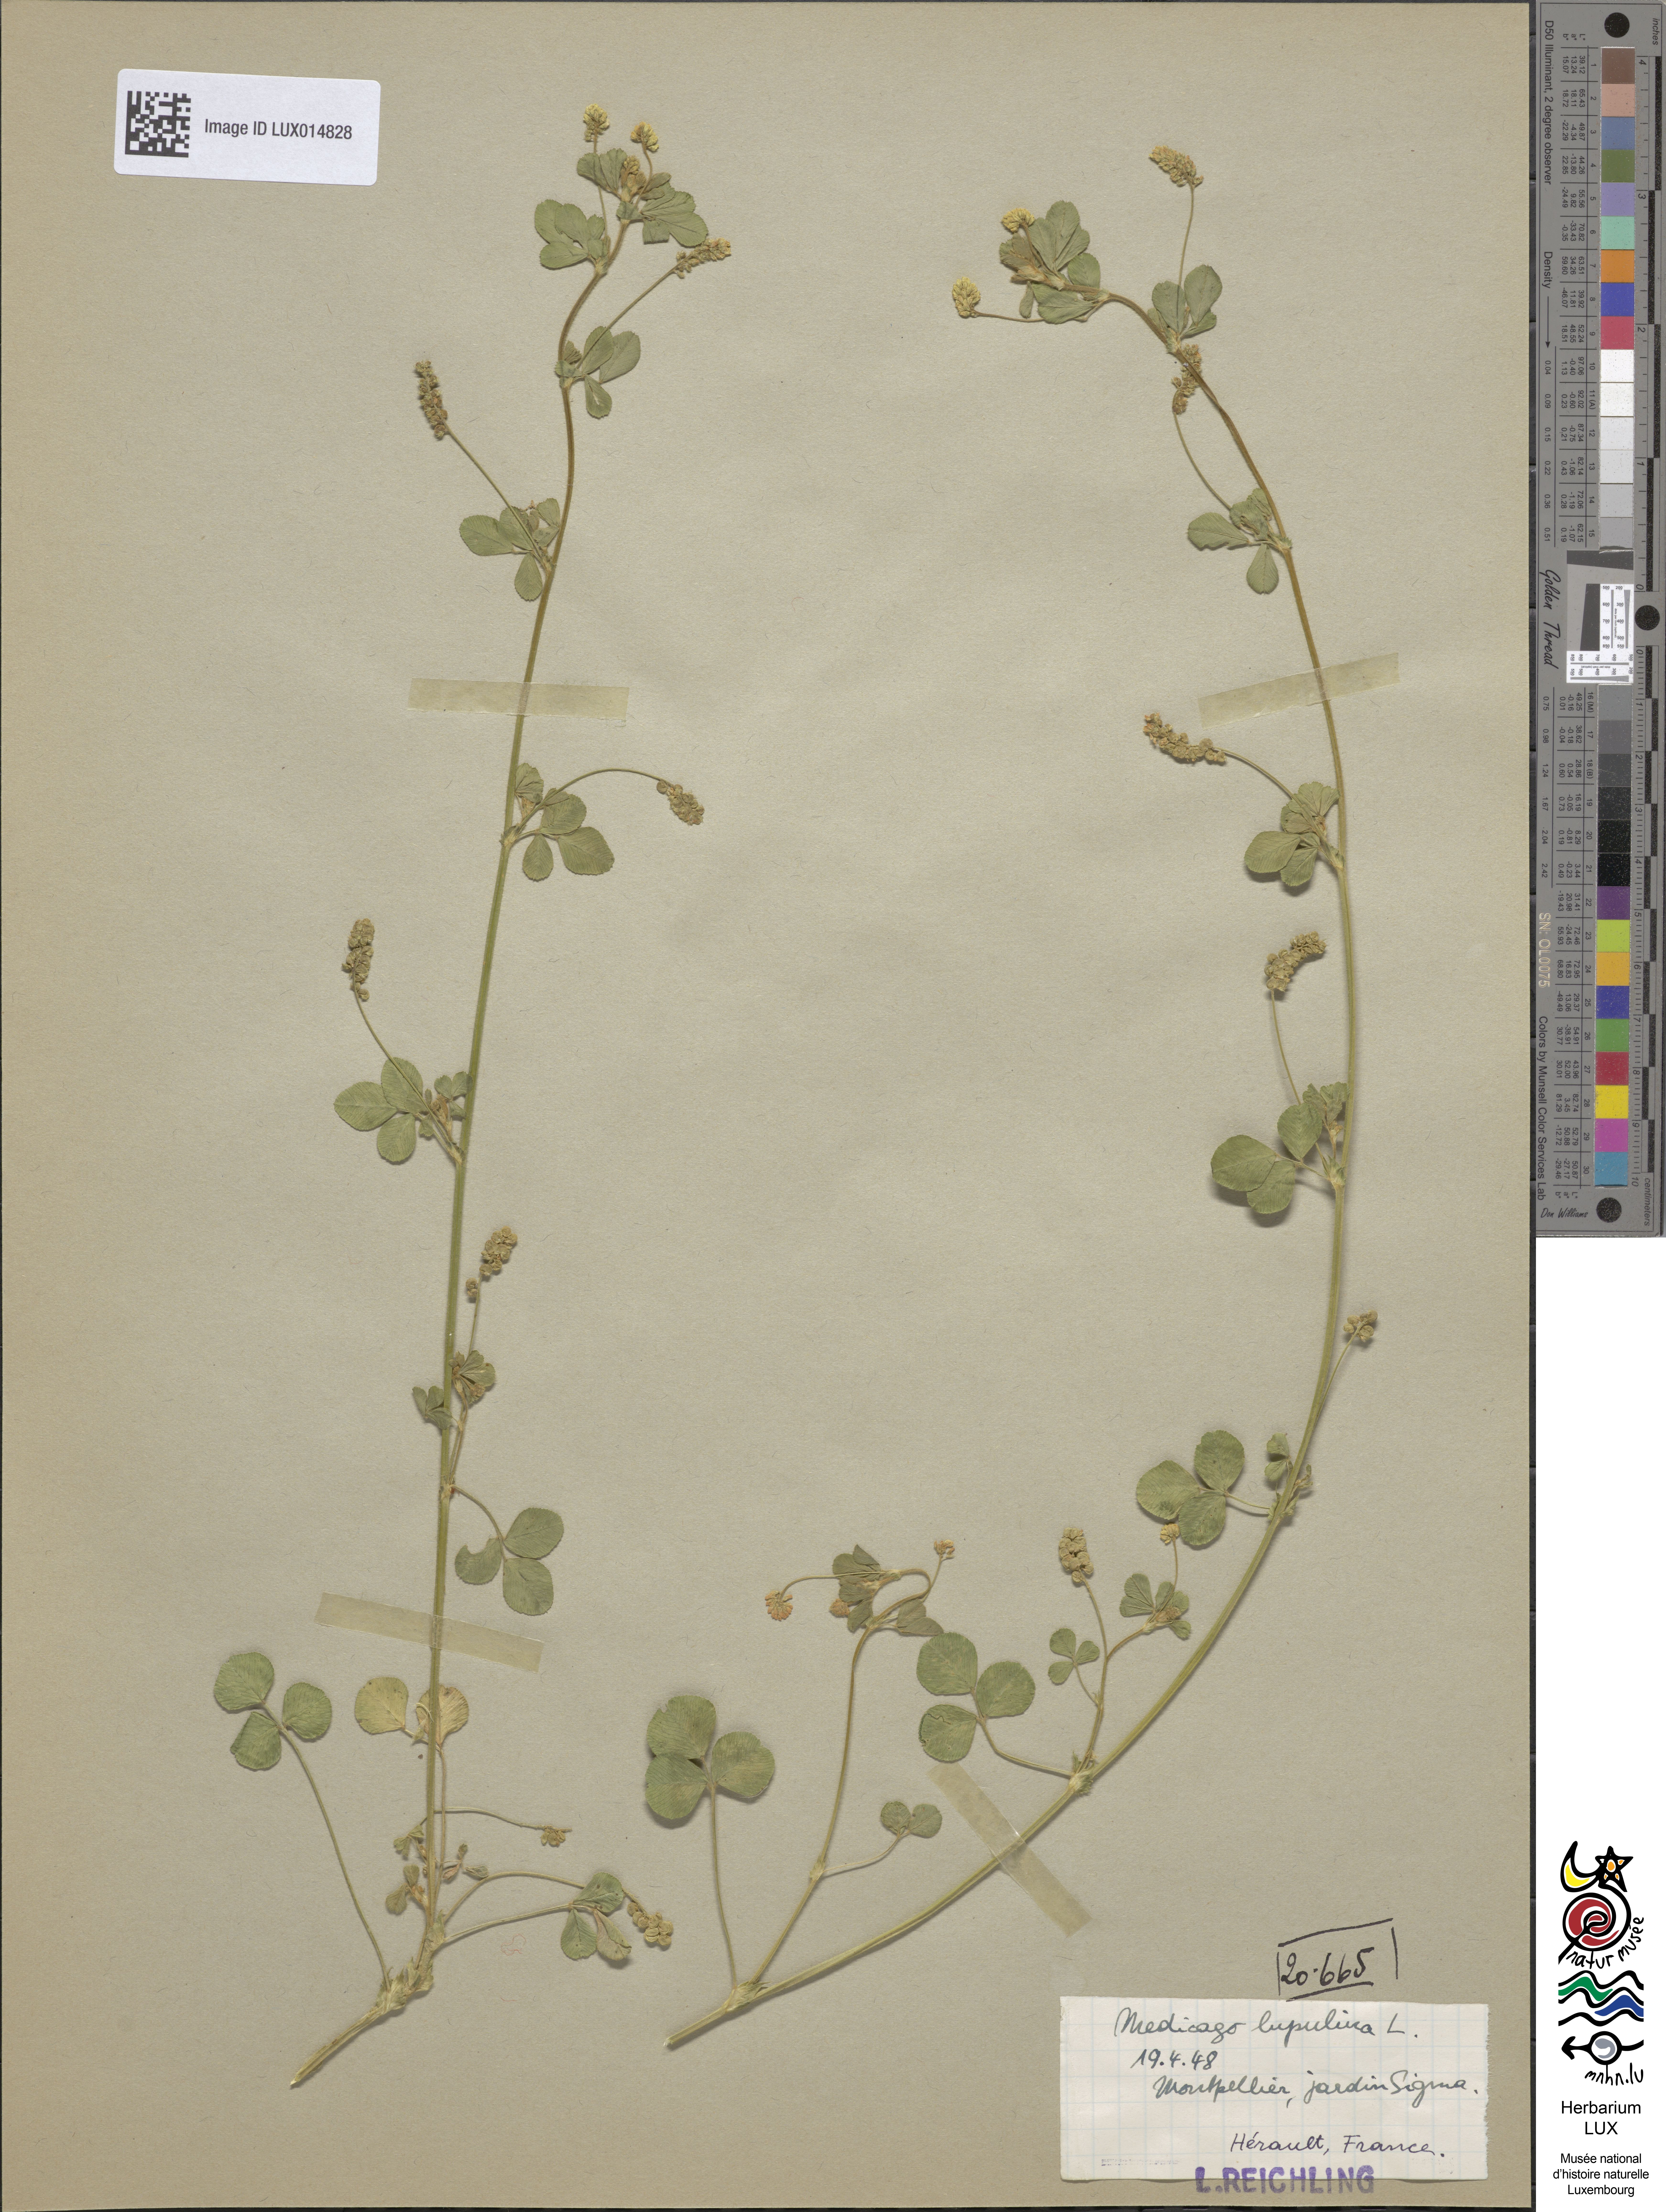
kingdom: Plantae
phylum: Tracheophyta
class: Magnoliopsida
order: Fabales
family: Fabaceae
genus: Medicago
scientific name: Medicago lupulina
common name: Black medick
